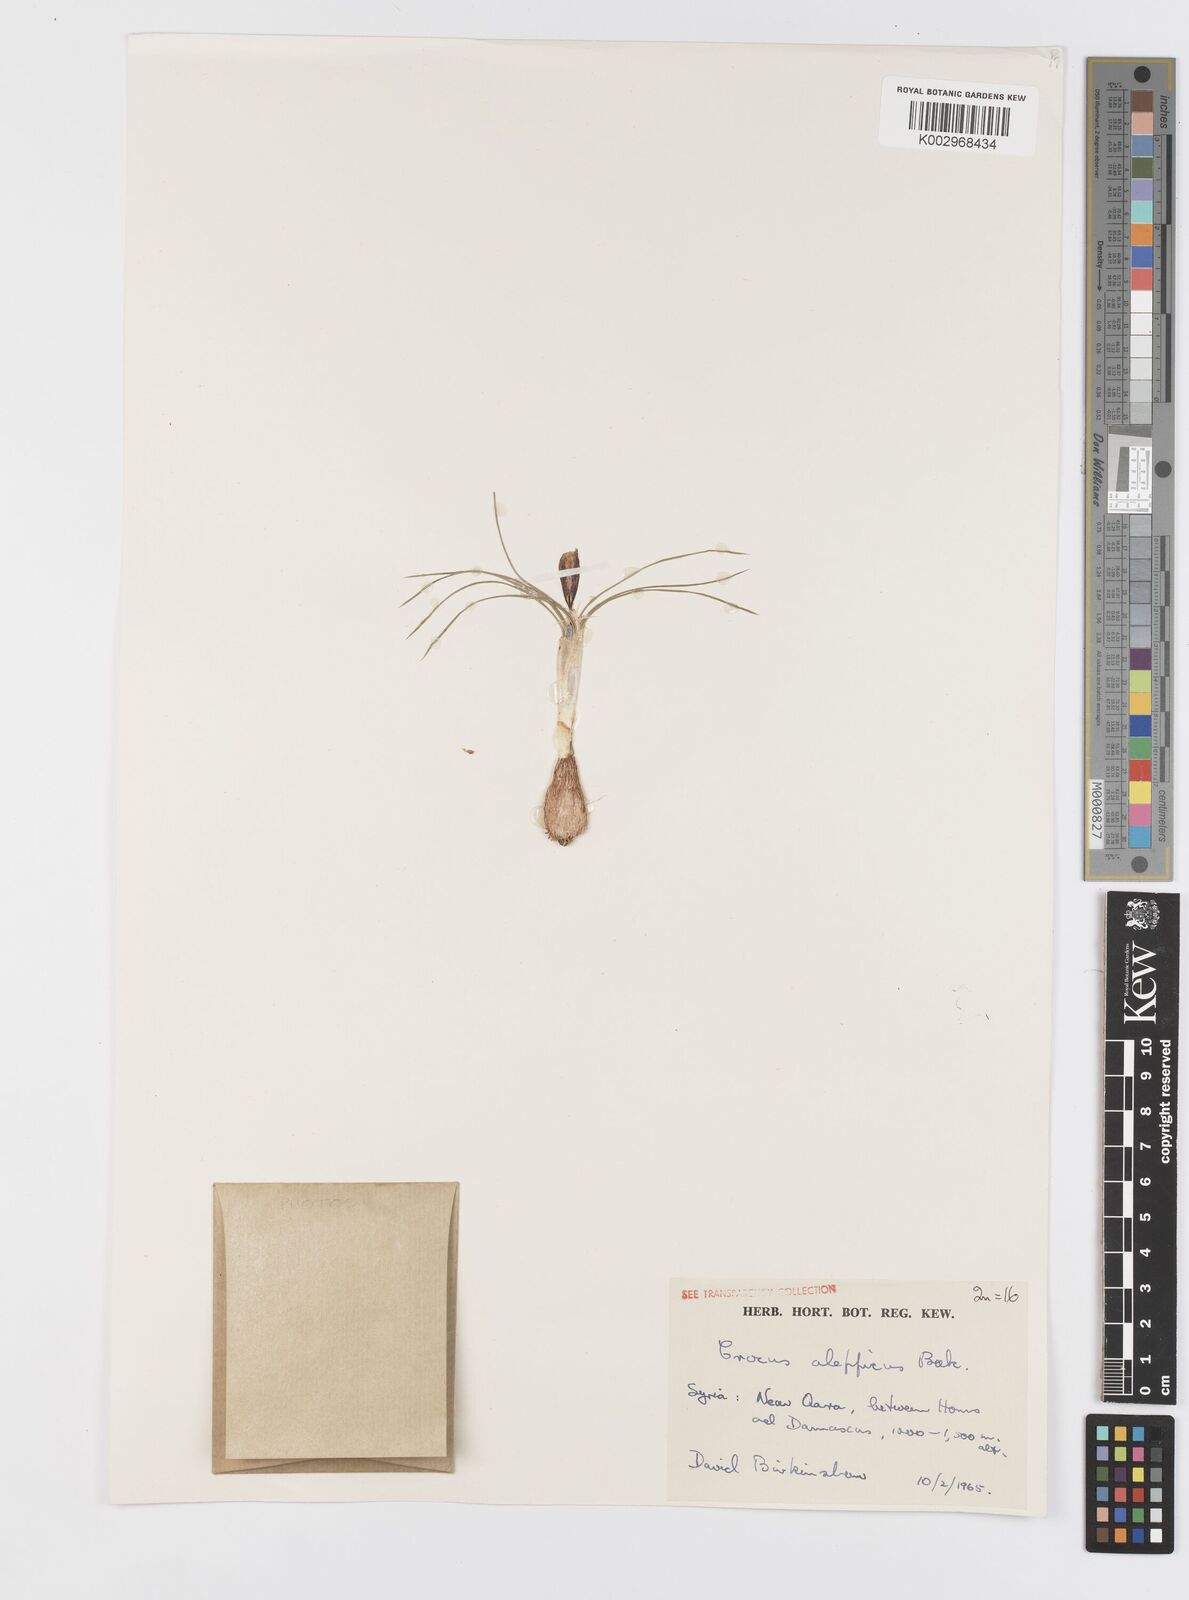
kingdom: Plantae
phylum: Tracheophyta
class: Liliopsida
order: Asparagales
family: Iridaceae
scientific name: Iridaceae
